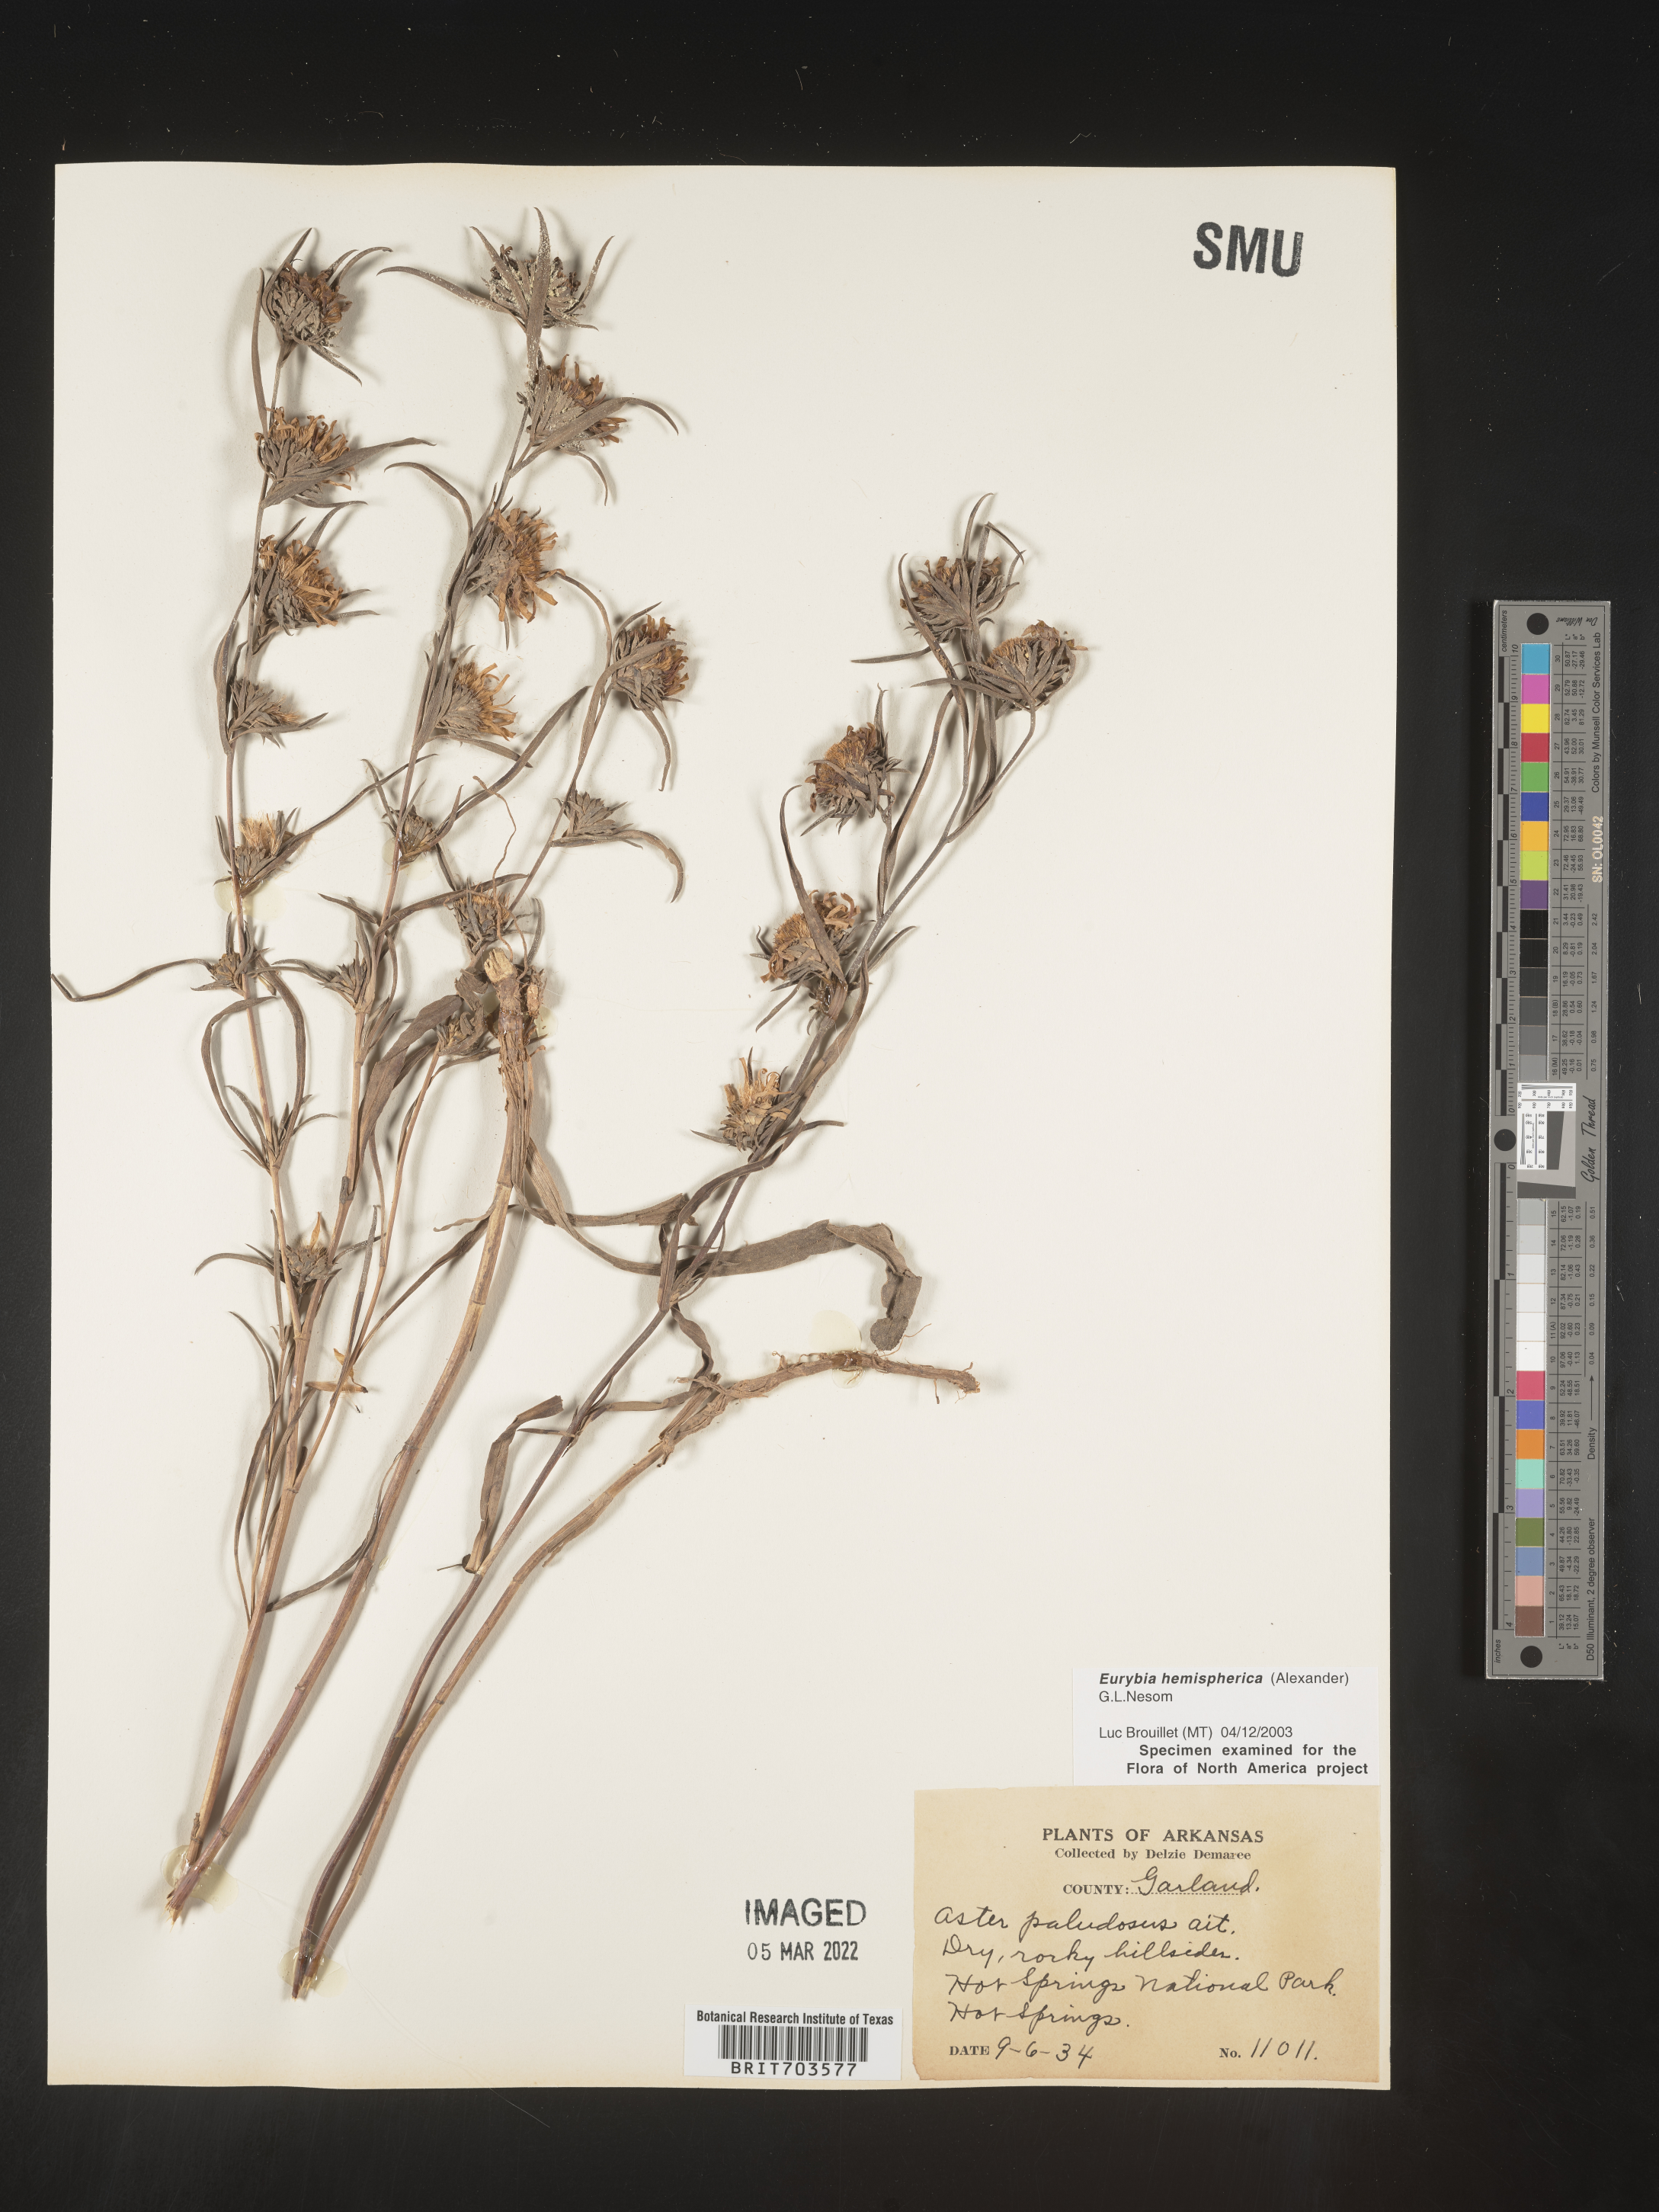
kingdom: Plantae
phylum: Tracheophyta
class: Magnoliopsida
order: Asterales
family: Asteraceae
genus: Eurybia
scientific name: Eurybia hemispherica
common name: Showy aster
